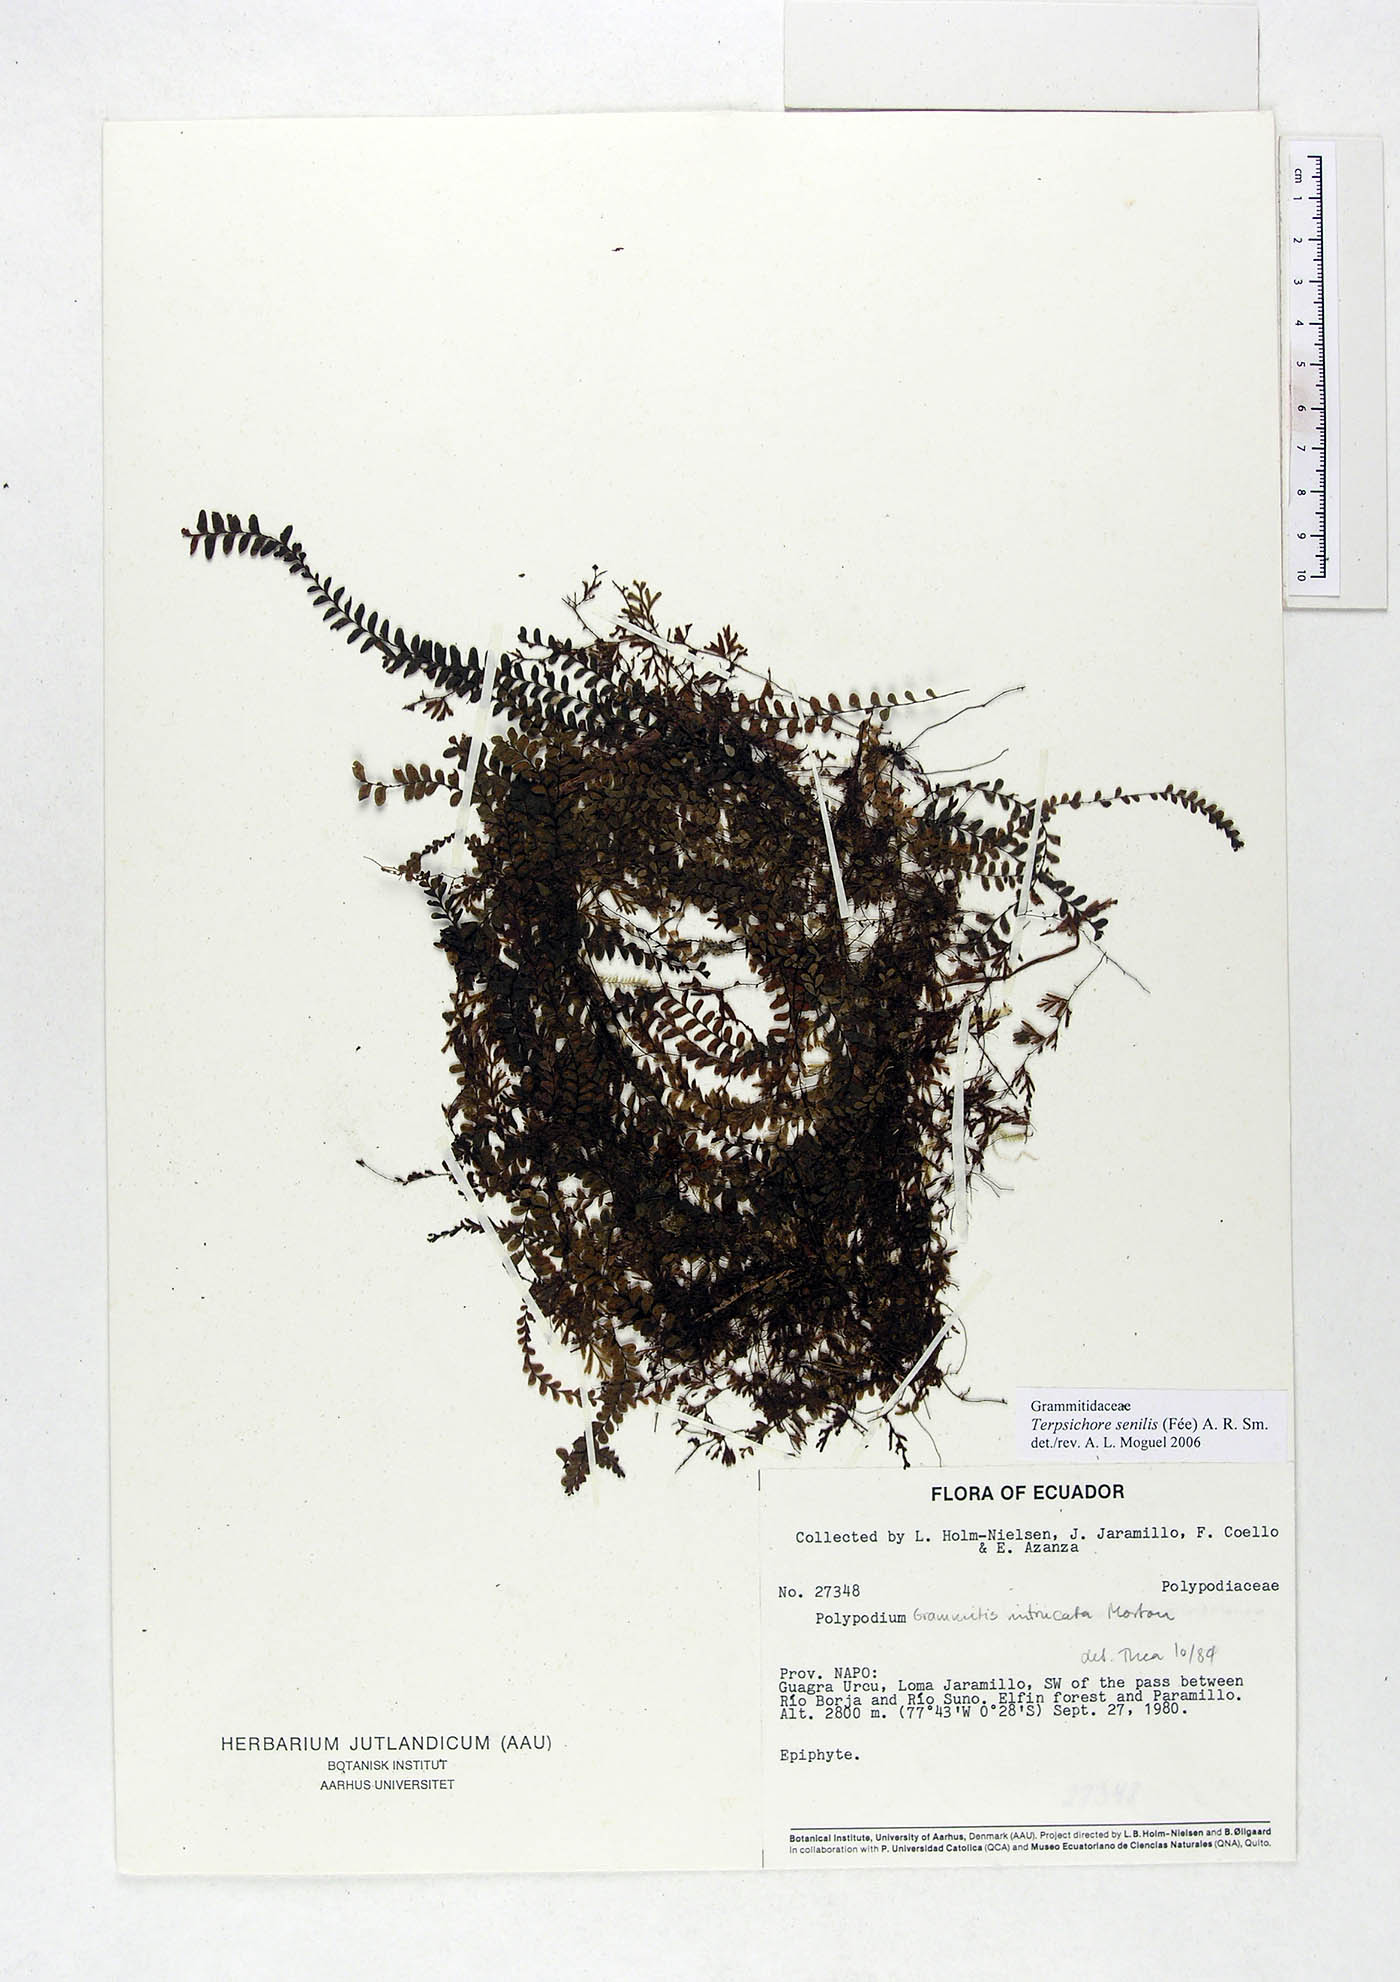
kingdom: Plantae
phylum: Tracheophyta
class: Polypodiopsida
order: Polypodiales
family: Polypodiaceae
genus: Alansmia
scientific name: Alansmia senilis
